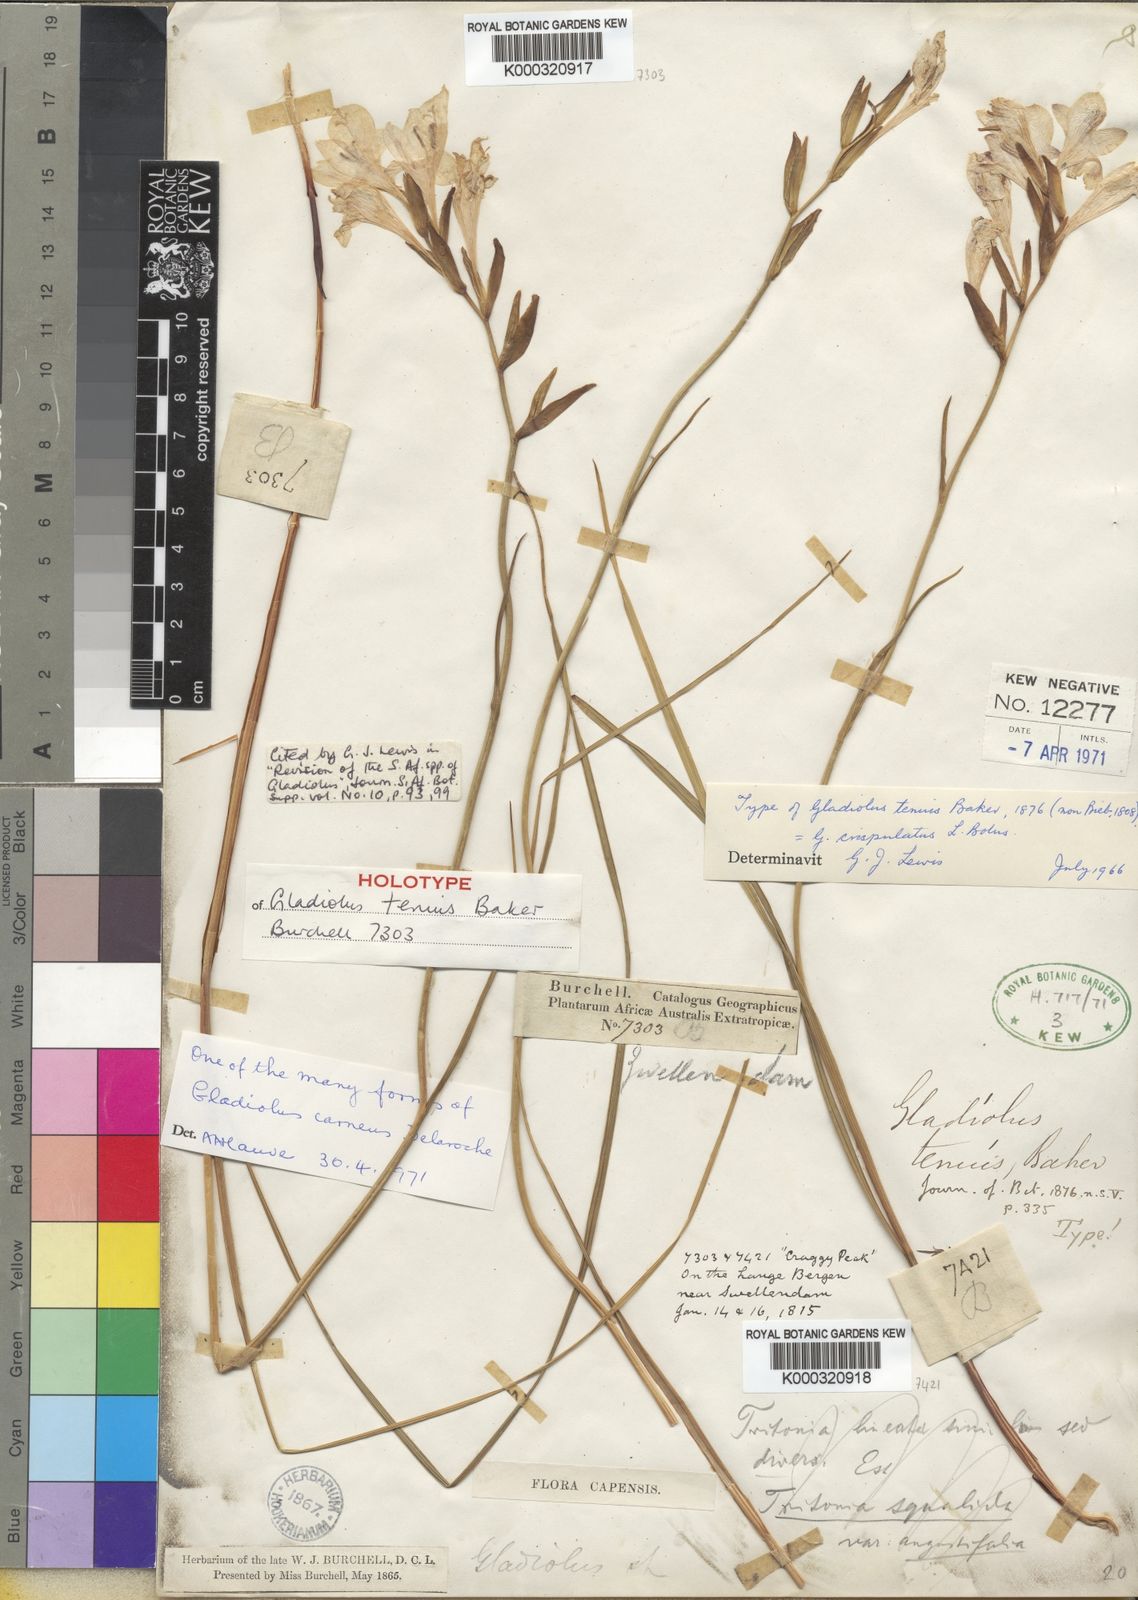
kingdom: Plantae
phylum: Tracheophyta
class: Liliopsida
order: Asparagales
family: Iridaceae
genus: Gladiolus
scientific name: Gladiolus carneus
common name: Painted-lady
